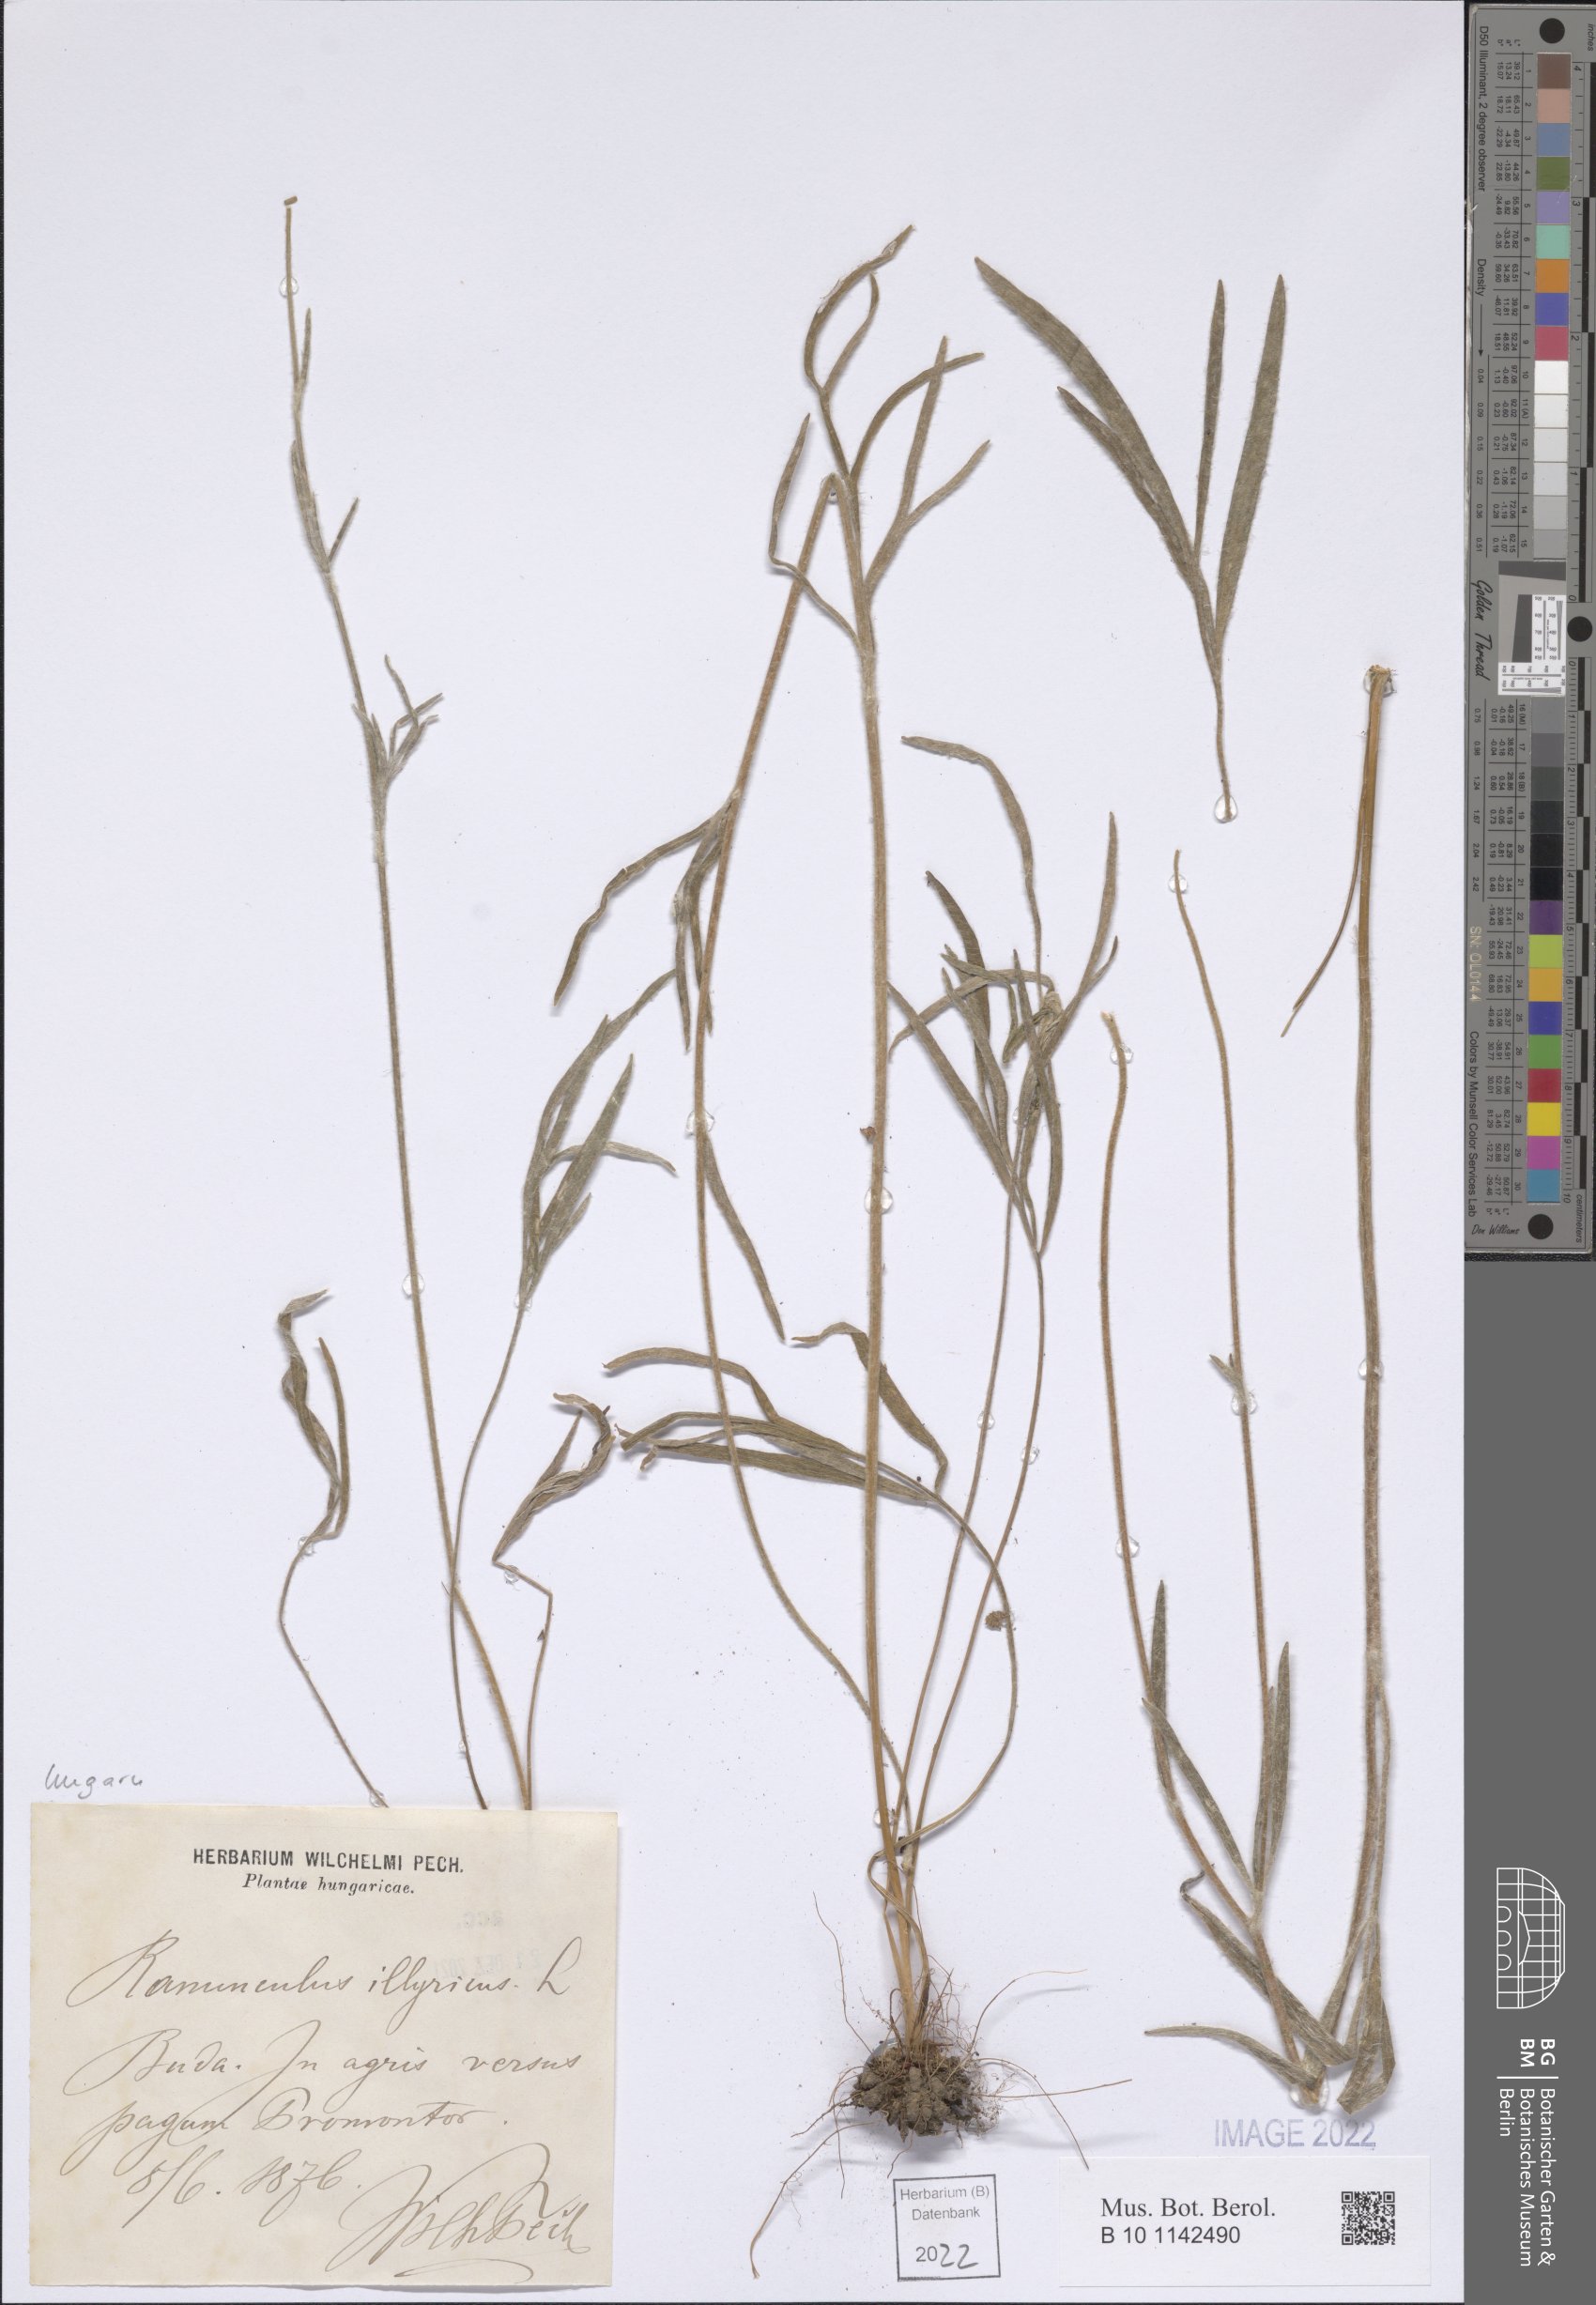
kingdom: Plantae
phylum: Tracheophyta
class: Magnoliopsida
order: Ranunculales
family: Ranunculaceae
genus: Ranunculus
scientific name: Ranunculus illyricus
